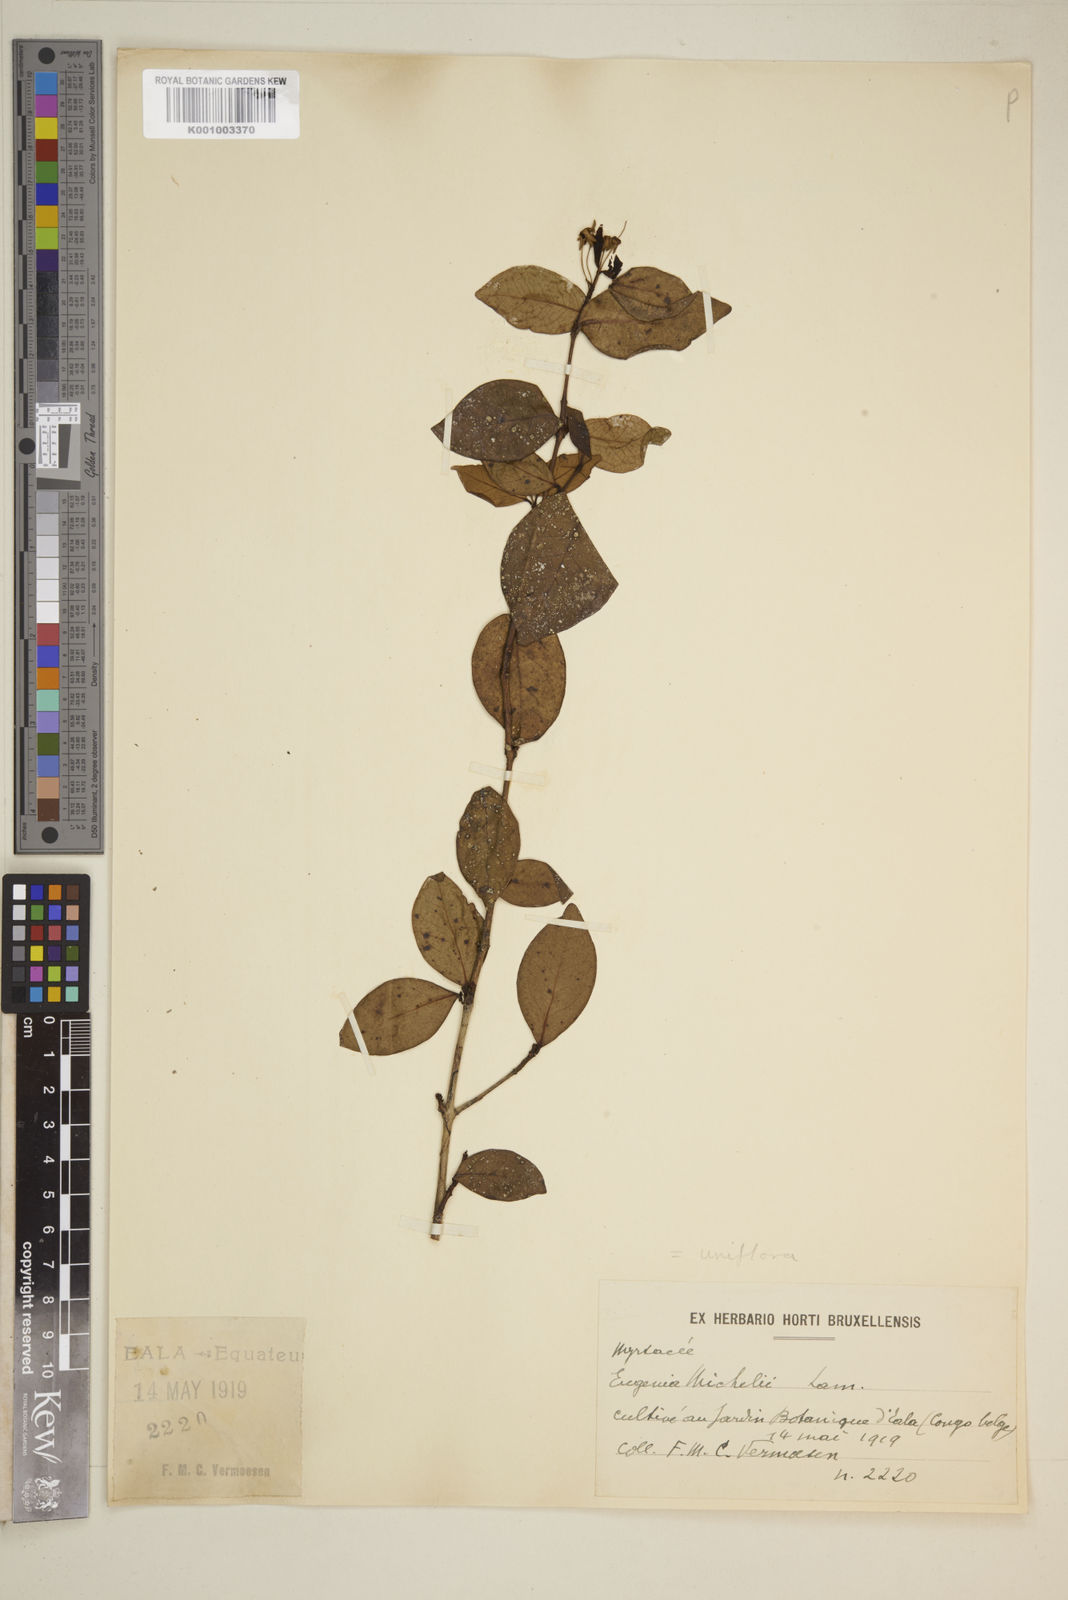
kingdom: Plantae
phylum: Tracheophyta
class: Magnoliopsida
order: Myrtales
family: Myrtaceae
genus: Eugenia
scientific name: Eugenia uniflora
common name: Surinam cherry
